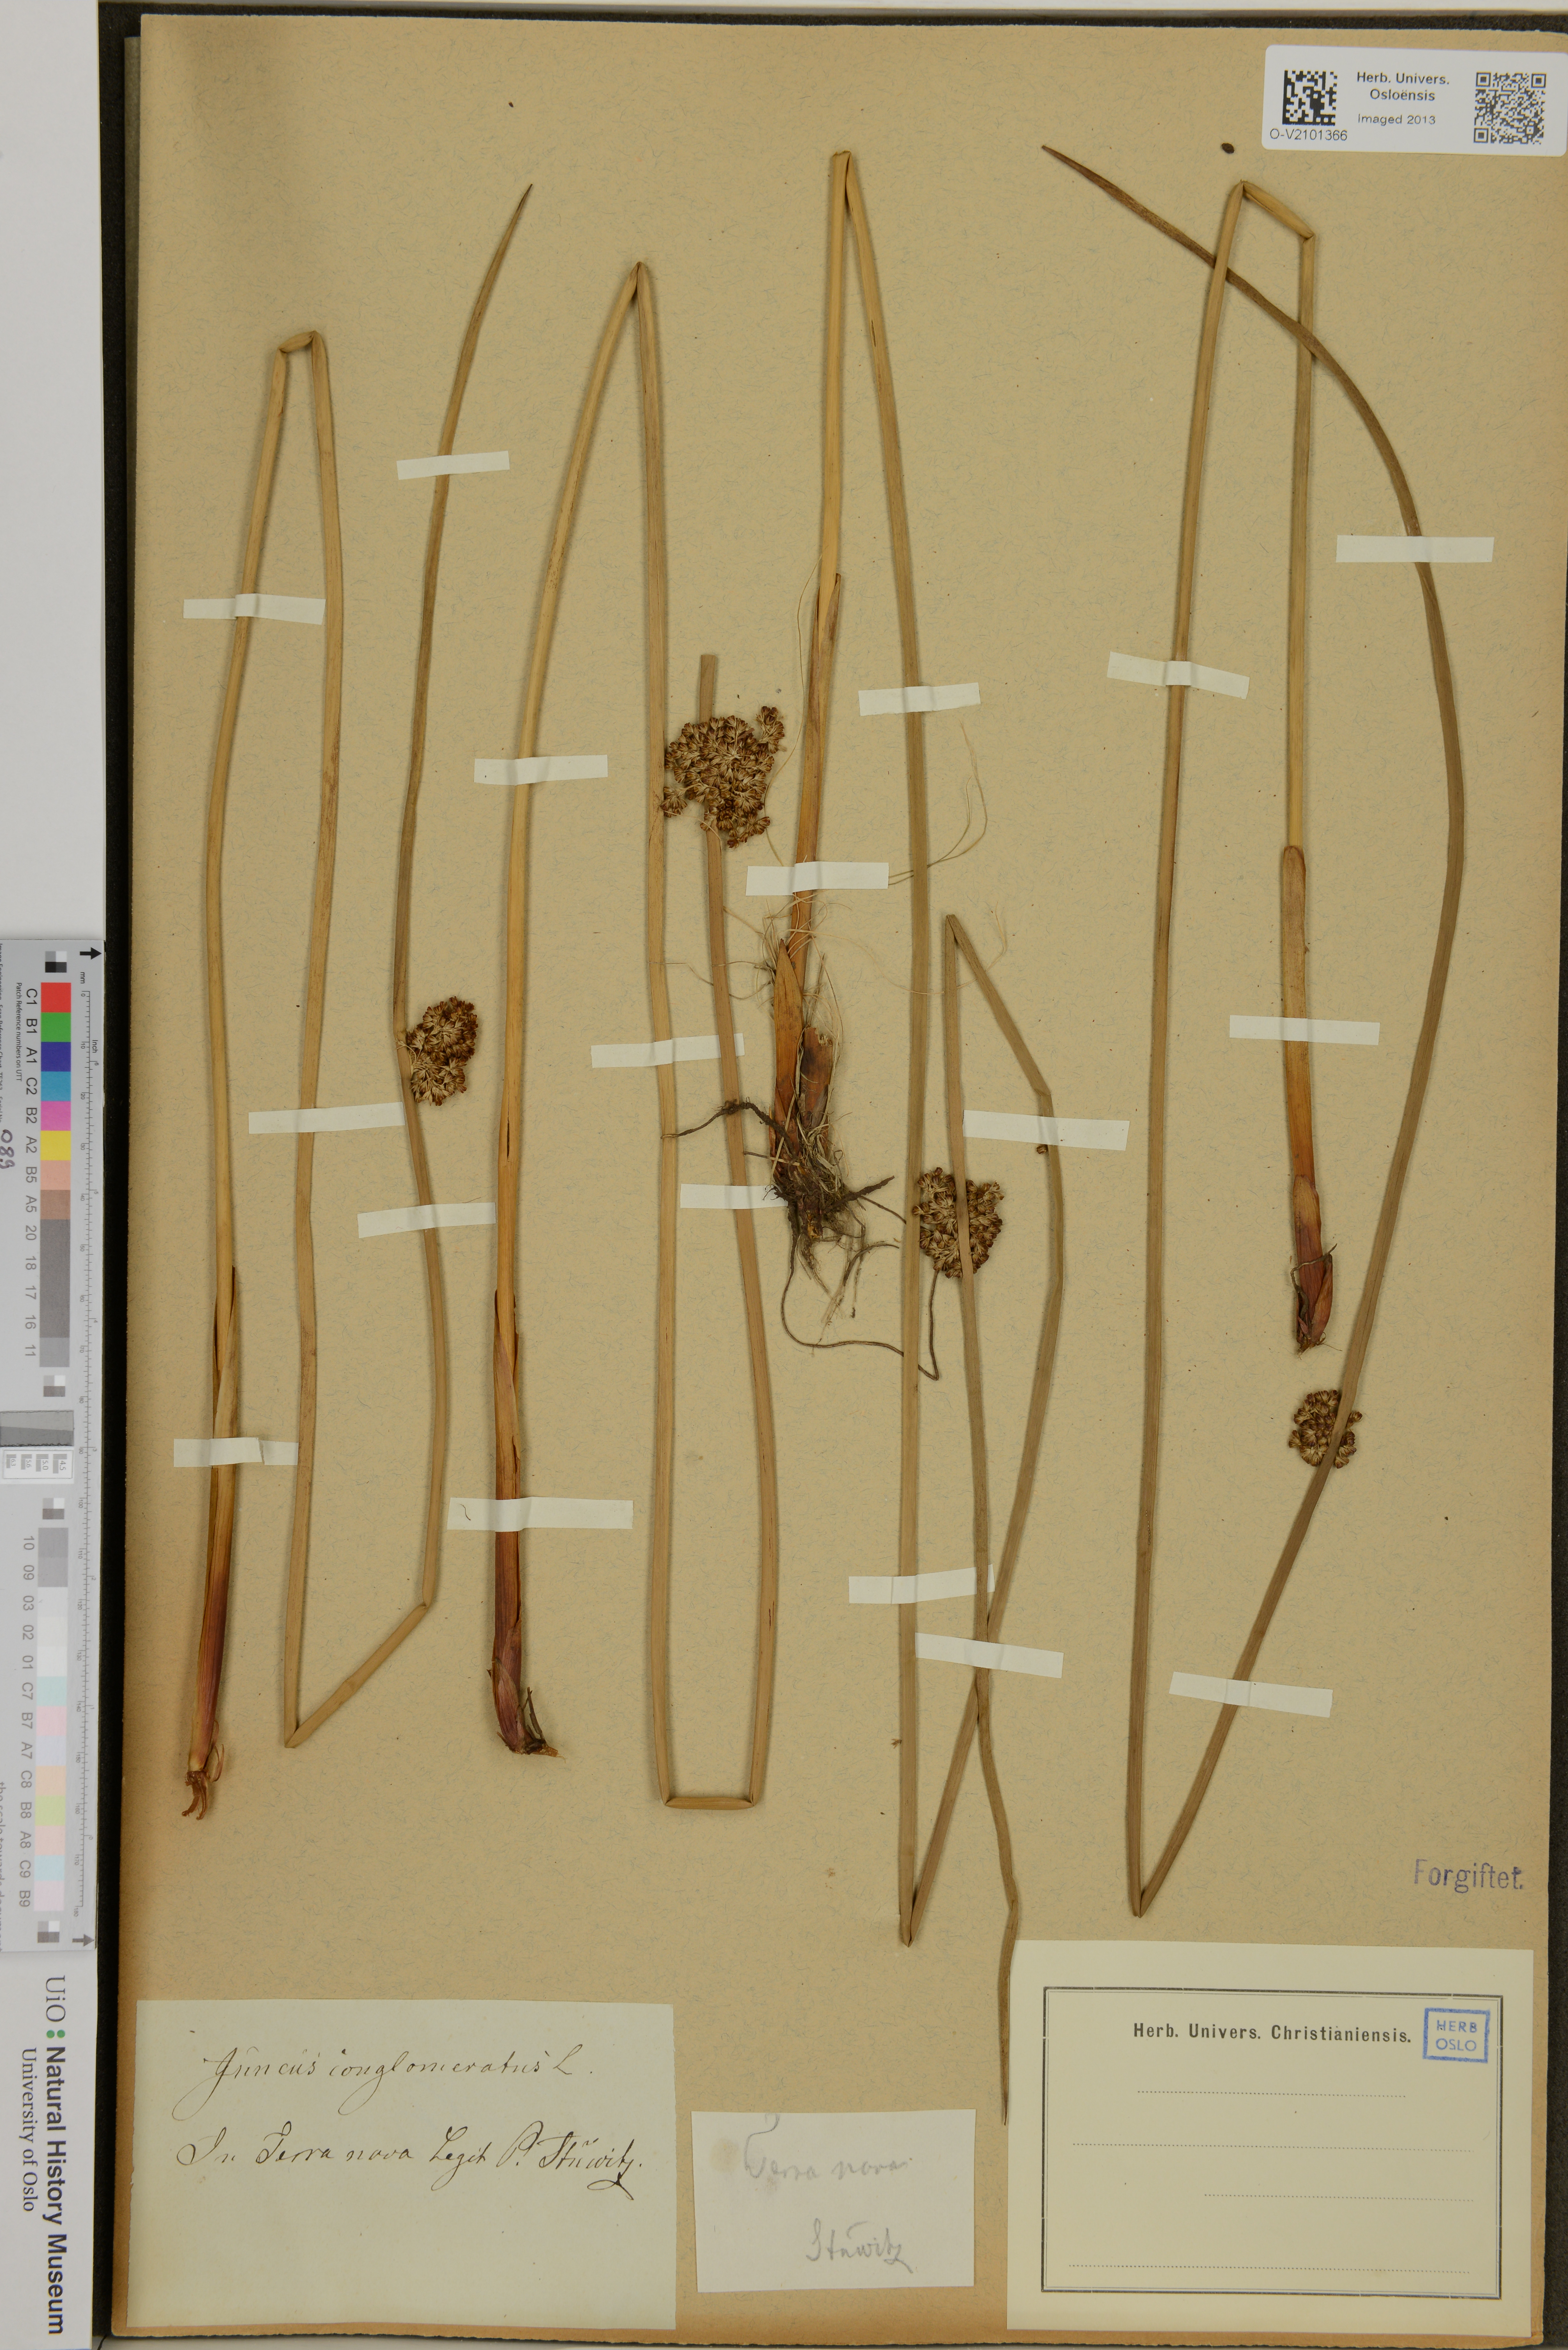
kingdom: Plantae
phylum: Tracheophyta
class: Liliopsida
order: Poales
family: Juncaceae
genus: Juncus
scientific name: Juncus conglomeratus
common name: Compact rush
